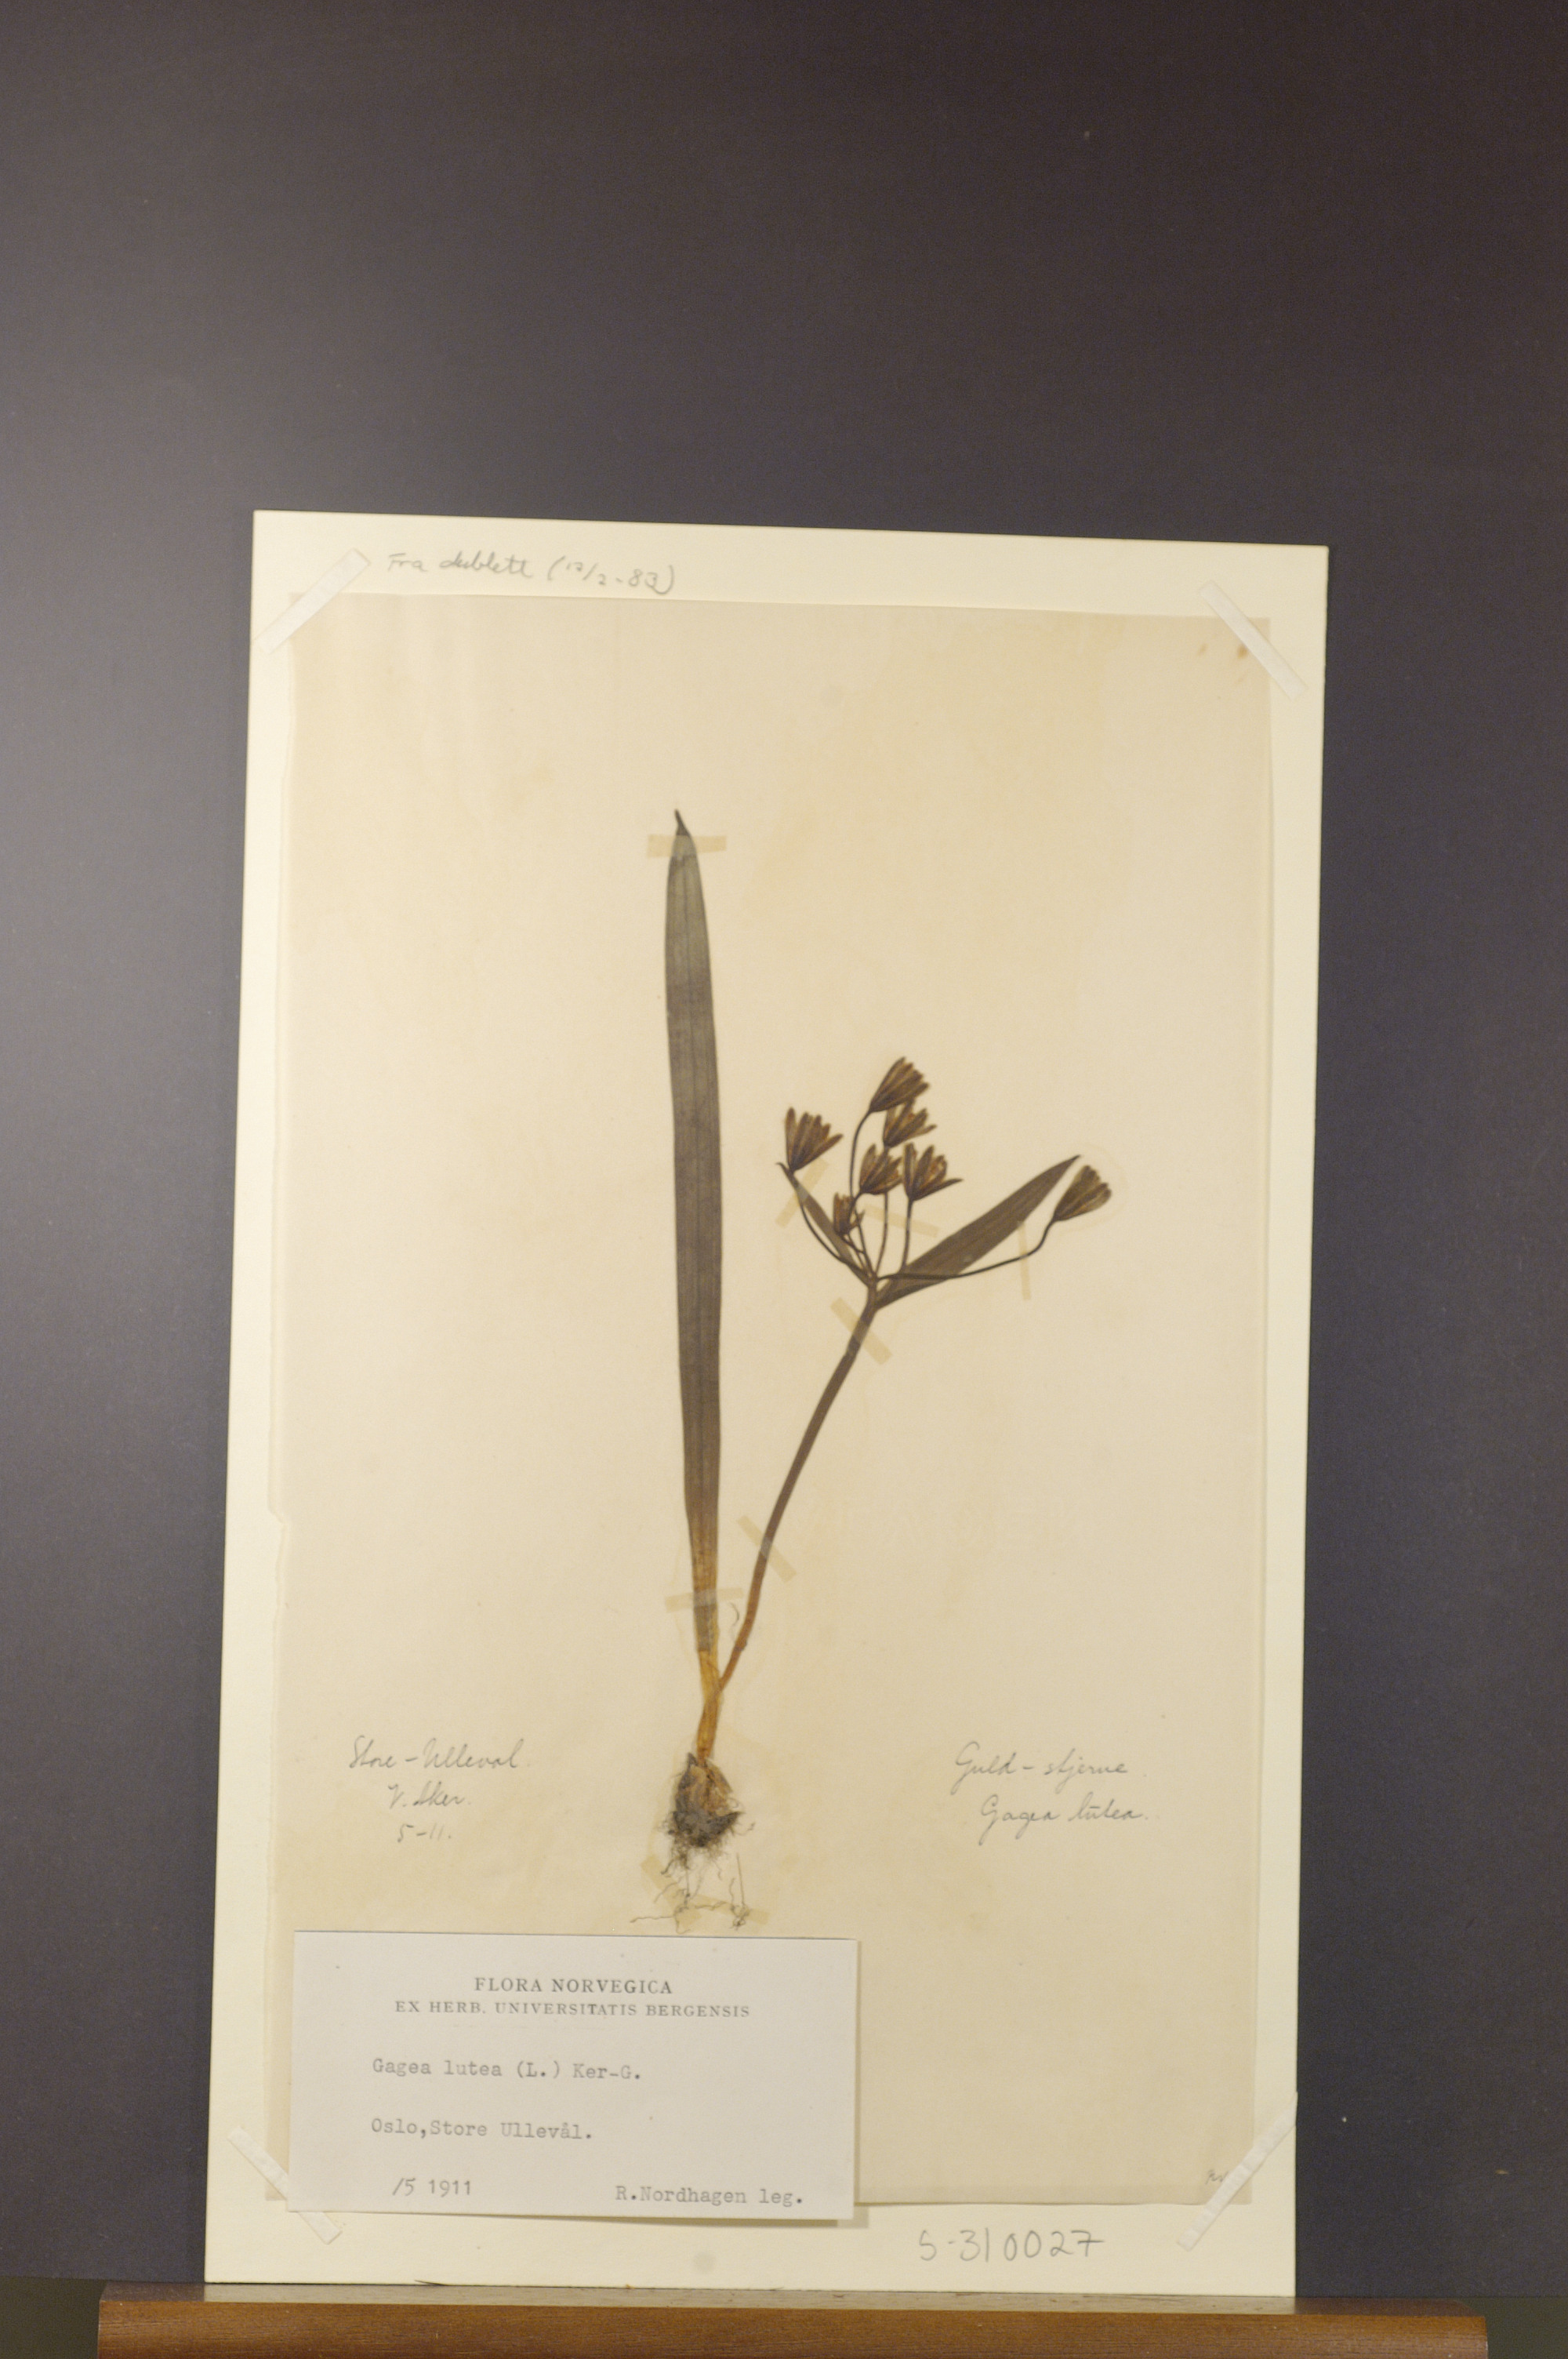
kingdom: Plantae
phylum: Tracheophyta
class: Liliopsida
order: Liliales
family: Liliaceae
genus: Gagea
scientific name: Gagea lutea
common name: Yellow star-of-bethlehem
